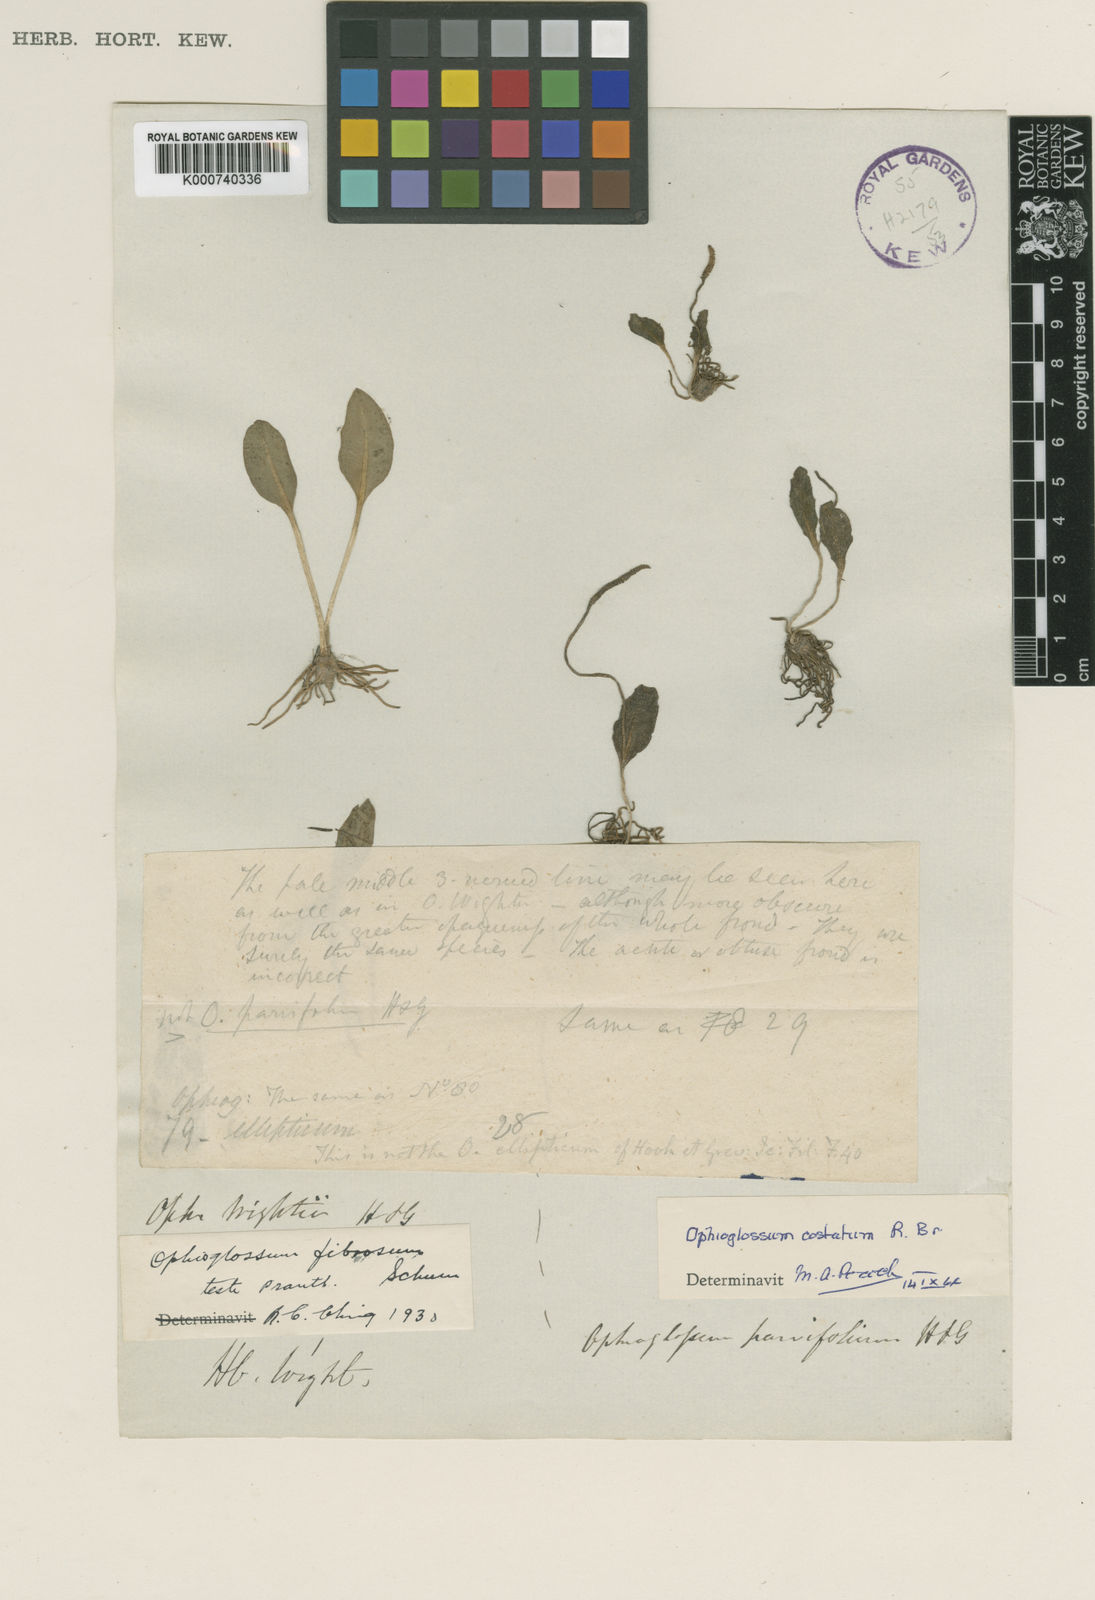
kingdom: Plantae
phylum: Tracheophyta
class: Polypodiopsida
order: Ophioglossales
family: Ophioglossaceae
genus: Ophioglossum
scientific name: Ophioglossum costatum
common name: Large adder's tongue
